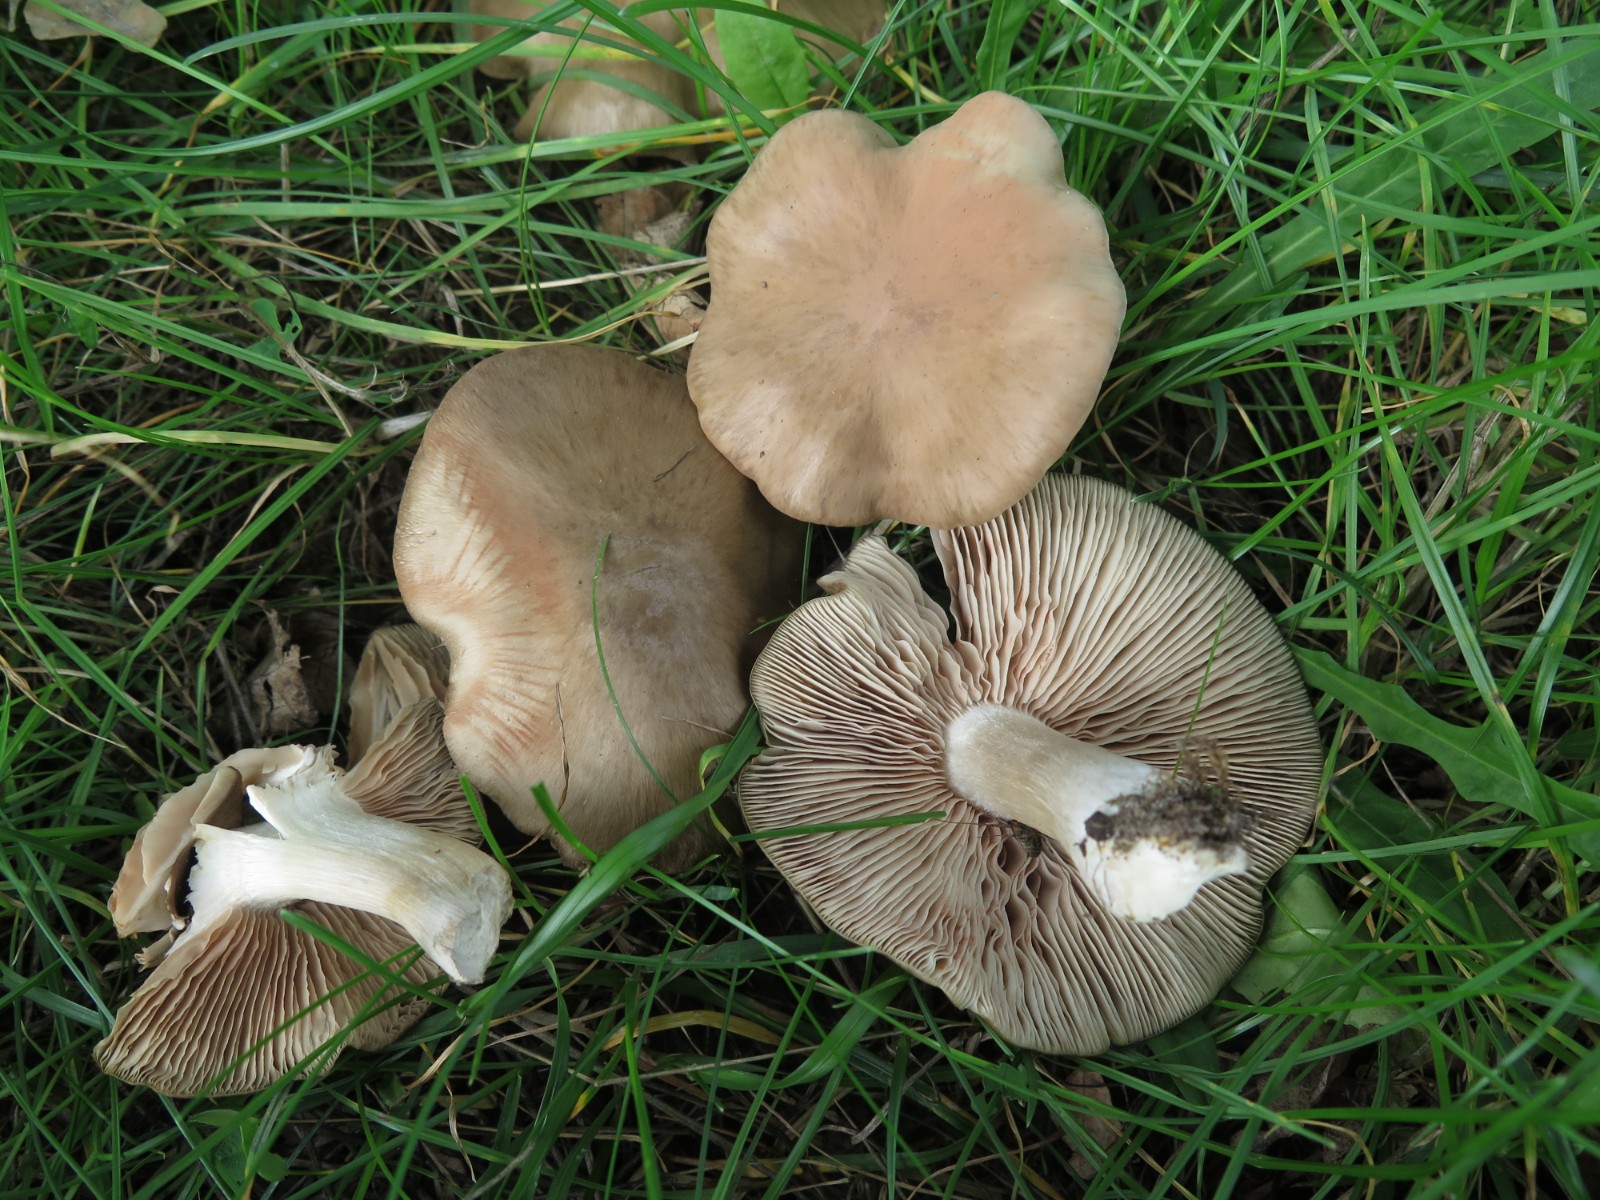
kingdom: Fungi
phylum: Basidiomycota
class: Agaricomycetes
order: Agaricales
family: Entolomataceae
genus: Entoloma
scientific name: Entoloma lividoalbum
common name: lysstokket rødblad
